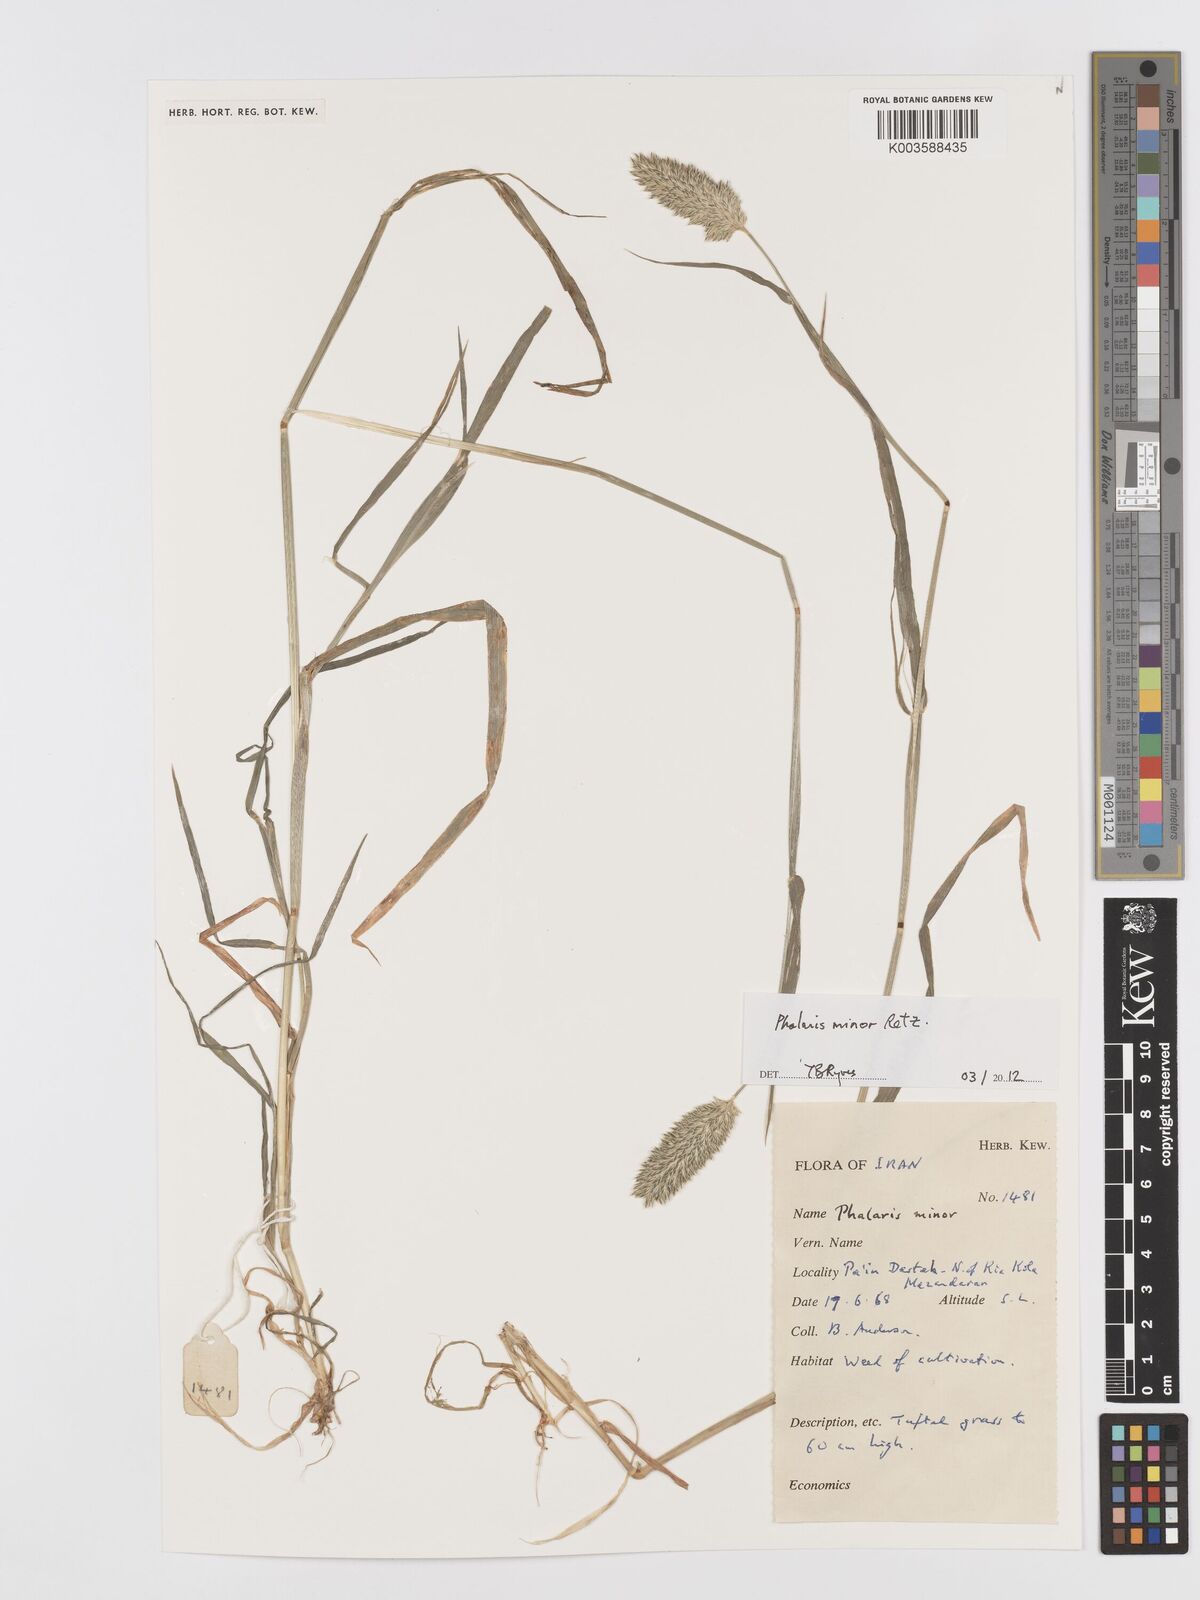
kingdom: Plantae
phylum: Tracheophyta
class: Liliopsida
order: Poales
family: Poaceae
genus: Phalaris
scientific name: Phalaris minor
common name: Littleseed canarygrass
